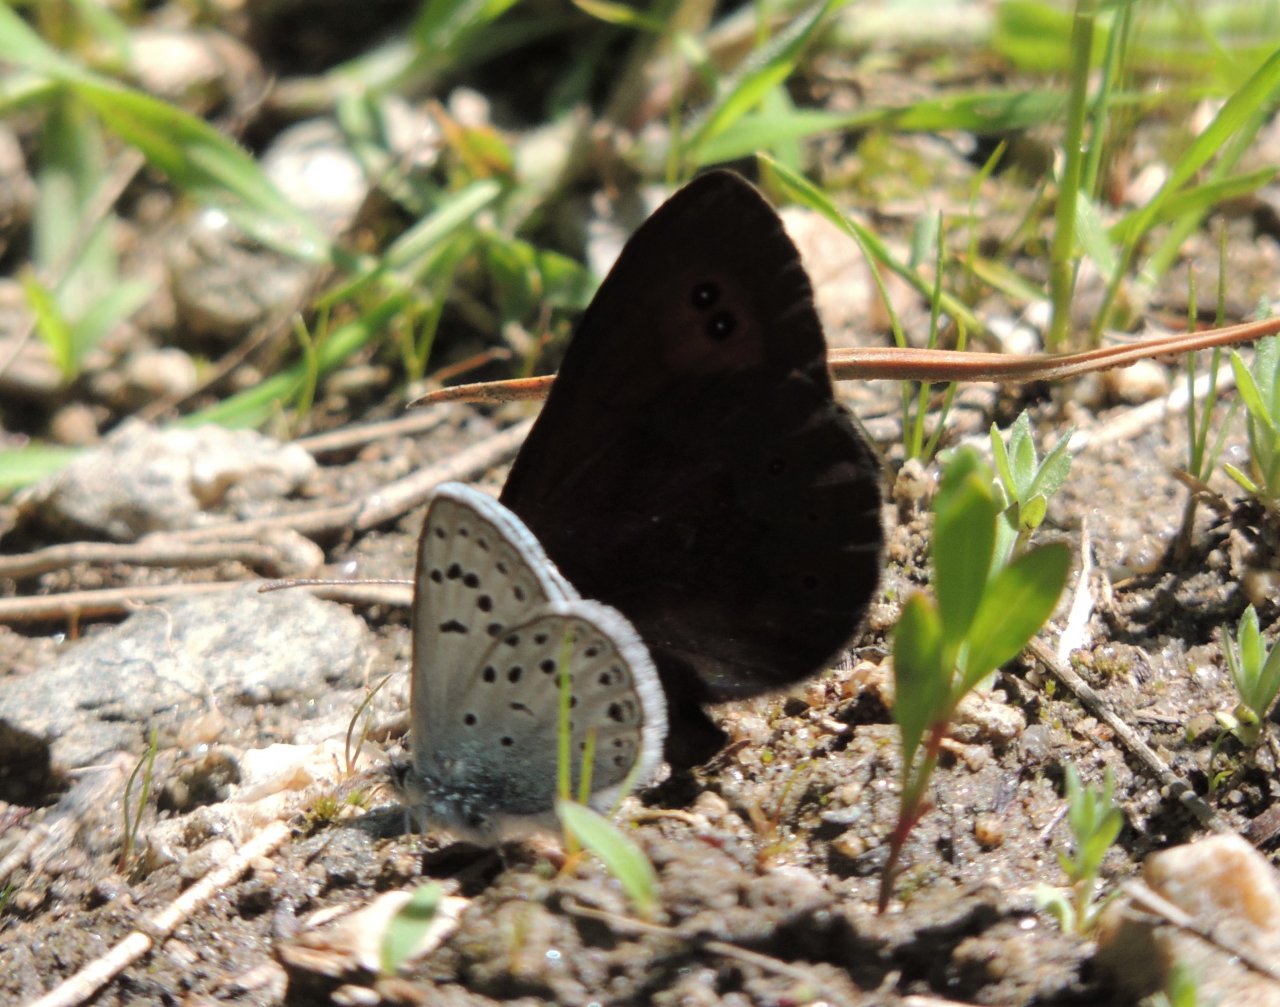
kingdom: Animalia
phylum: Arthropoda
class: Insecta
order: Lepidoptera
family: Nymphalidae
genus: Erebia
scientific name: Erebia epipsodea
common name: Common Alpine
